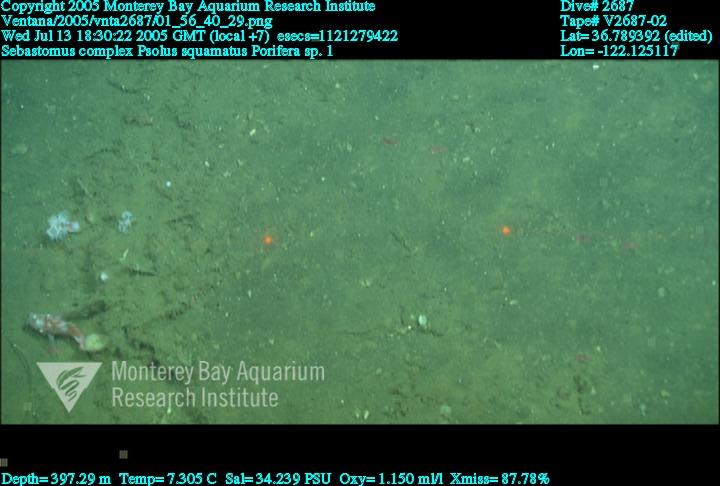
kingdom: Animalia
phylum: Porifera
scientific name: Porifera
